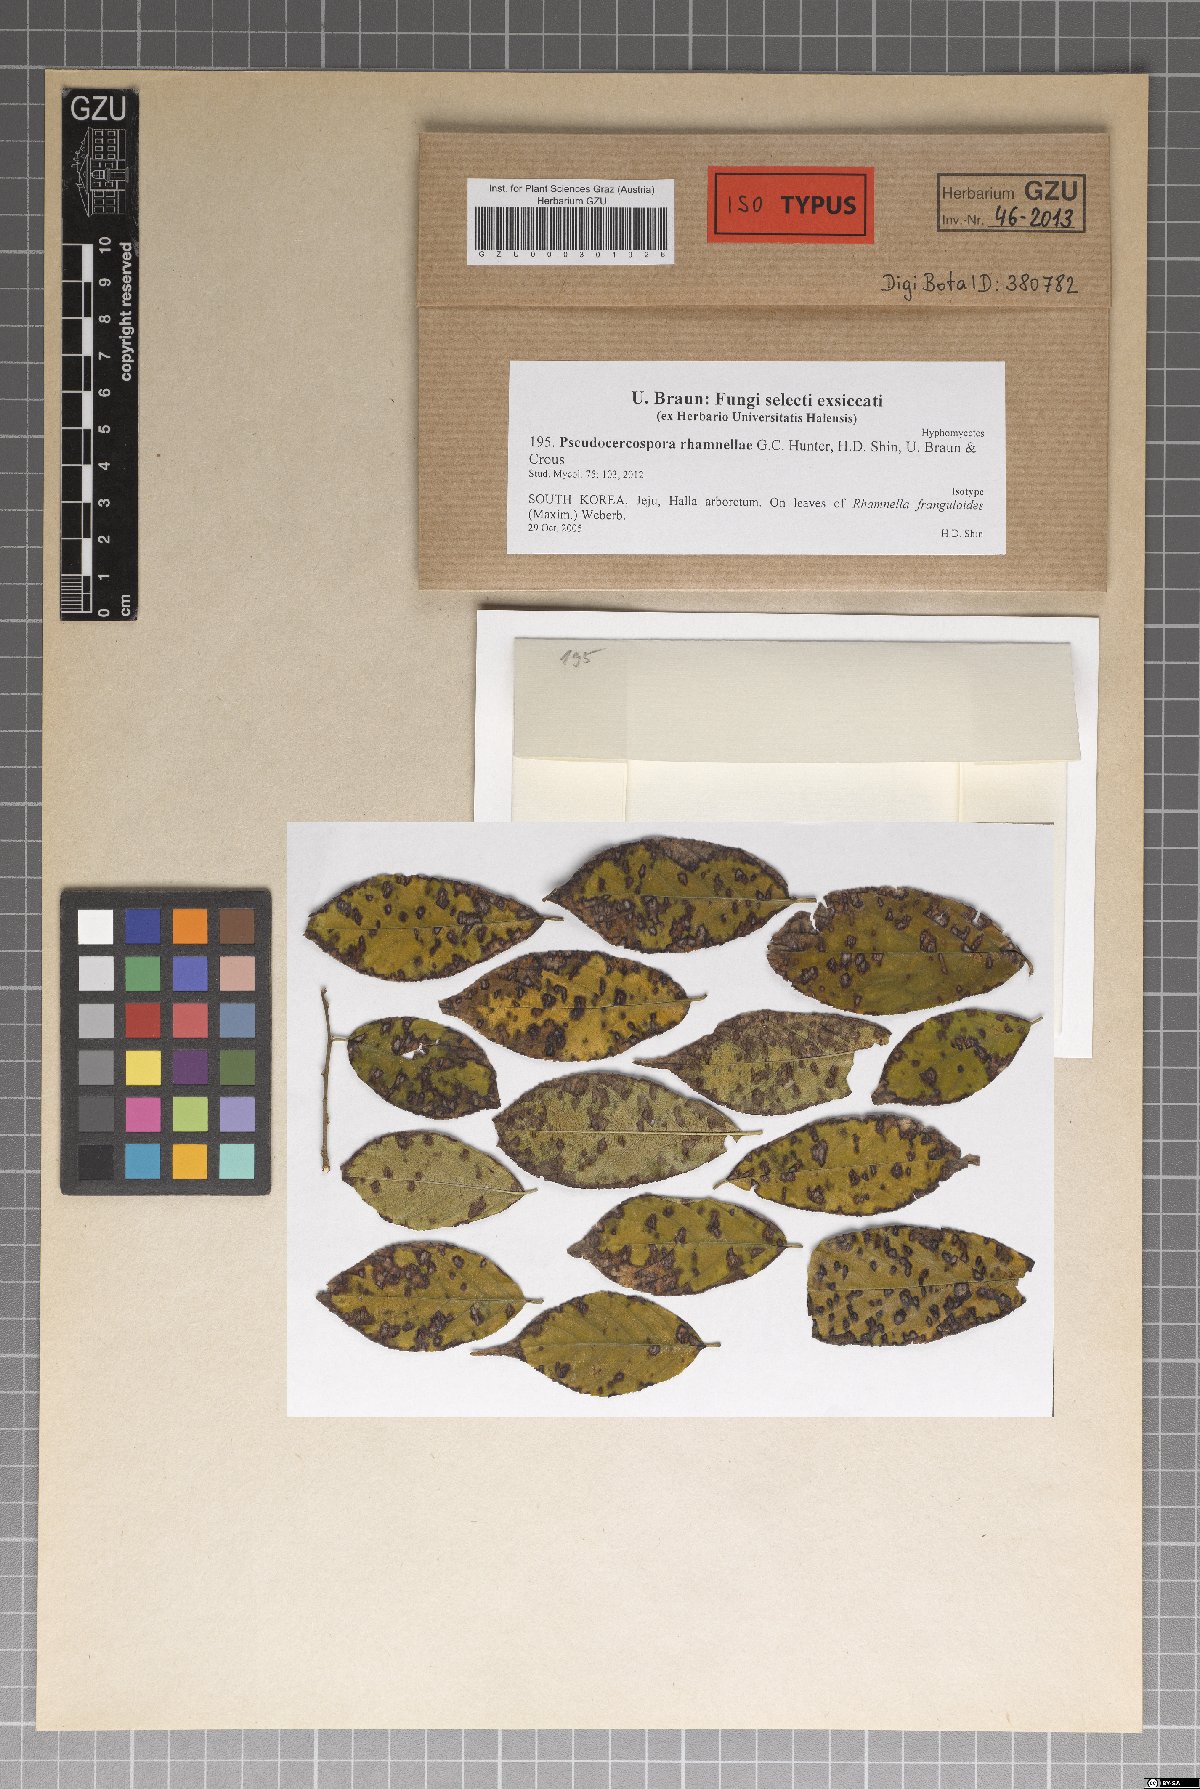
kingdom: Fungi
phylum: Ascomycota
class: Dothideomycetes
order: Mycosphaerellales
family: Mycosphaerellaceae
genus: Pseudocercospora
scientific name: Pseudocercospora rhamnellae
